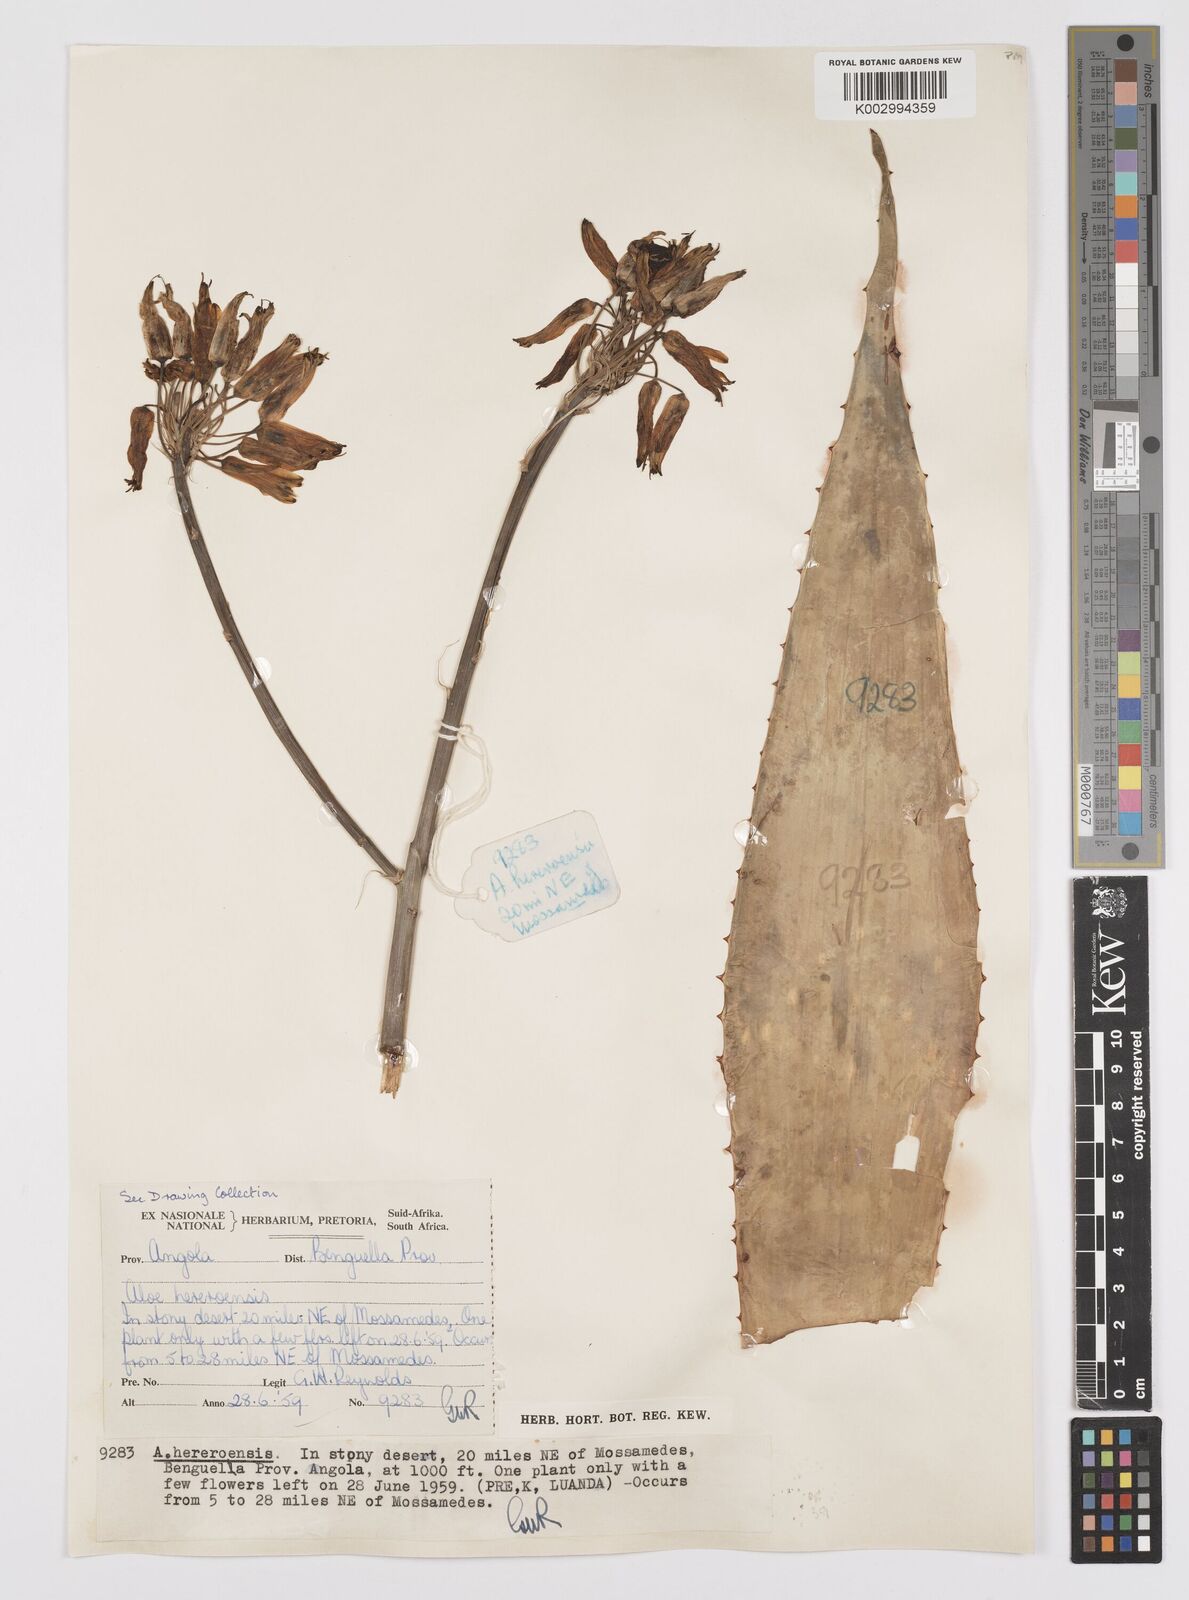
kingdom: Plantae
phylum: Tracheophyta
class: Liliopsida
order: Asparagales
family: Asphodelaceae
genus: Aloe
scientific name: Aloe hereroensis
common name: Herero aloe
